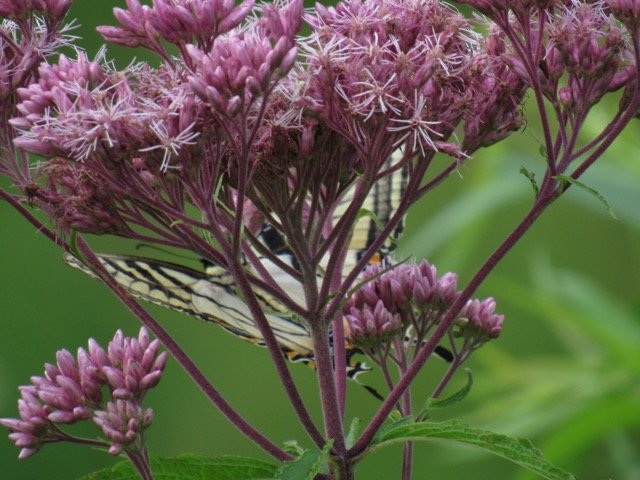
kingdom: Animalia
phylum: Arthropoda
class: Insecta
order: Lepidoptera
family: Papilionidae
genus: Pterourus
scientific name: Pterourus
